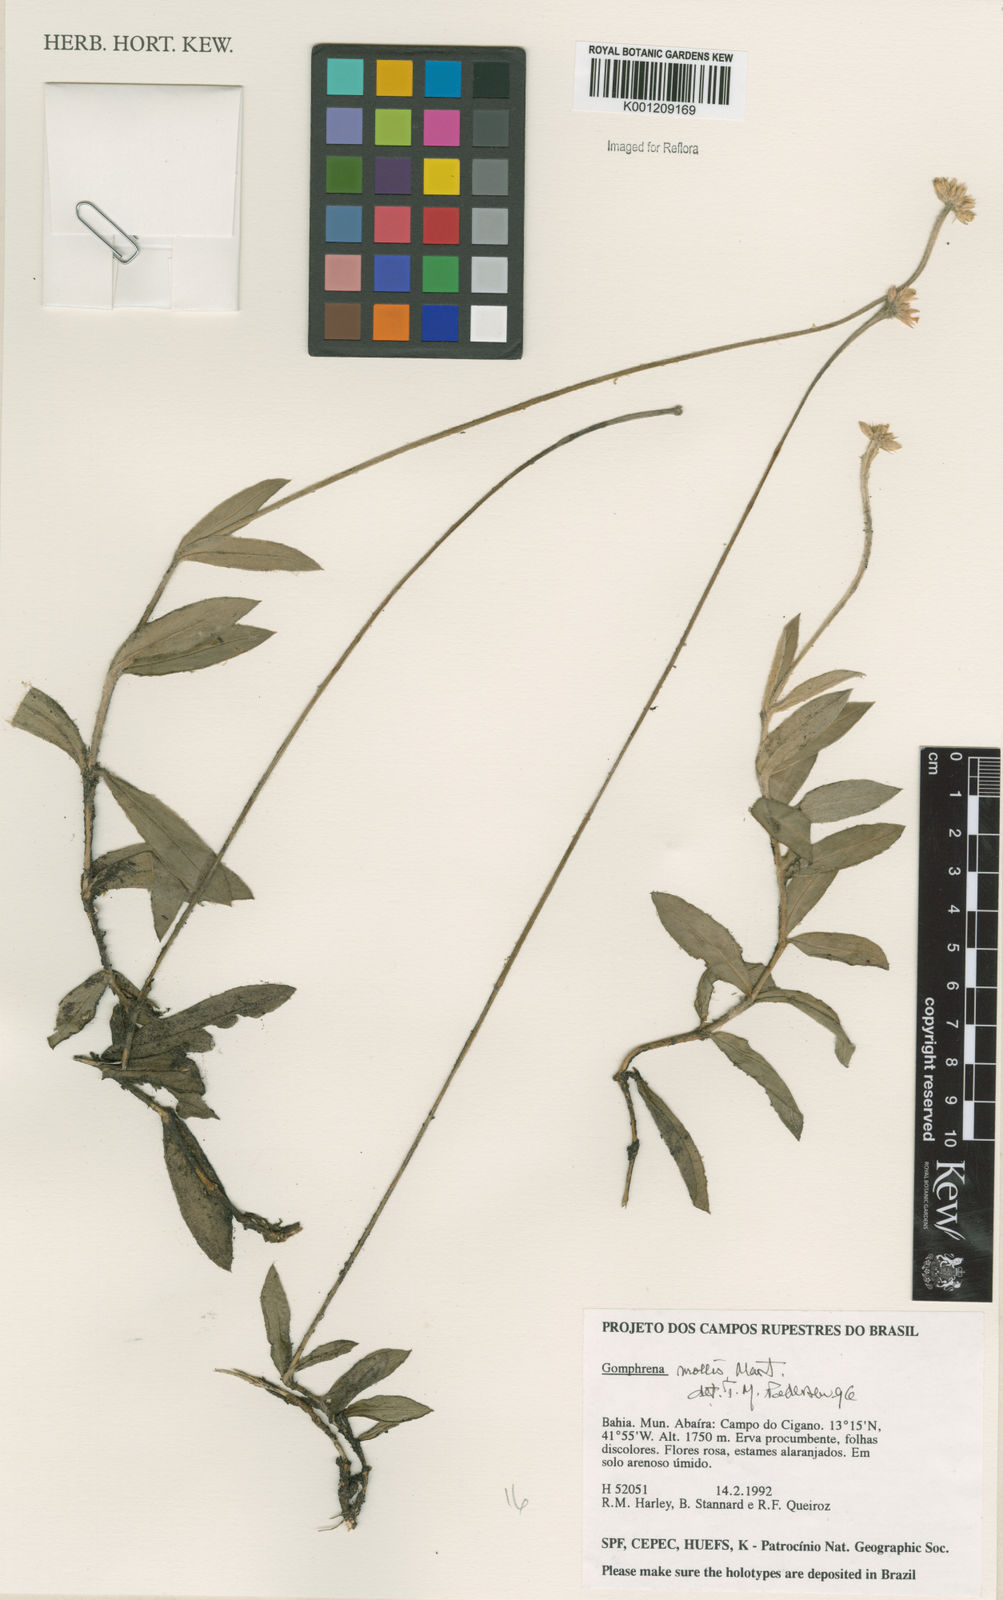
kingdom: Plantae
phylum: Tracheophyta
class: Magnoliopsida
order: Caryophyllales
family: Amaranthaceae
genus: Gomphrena
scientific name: Gomphrena mollis
